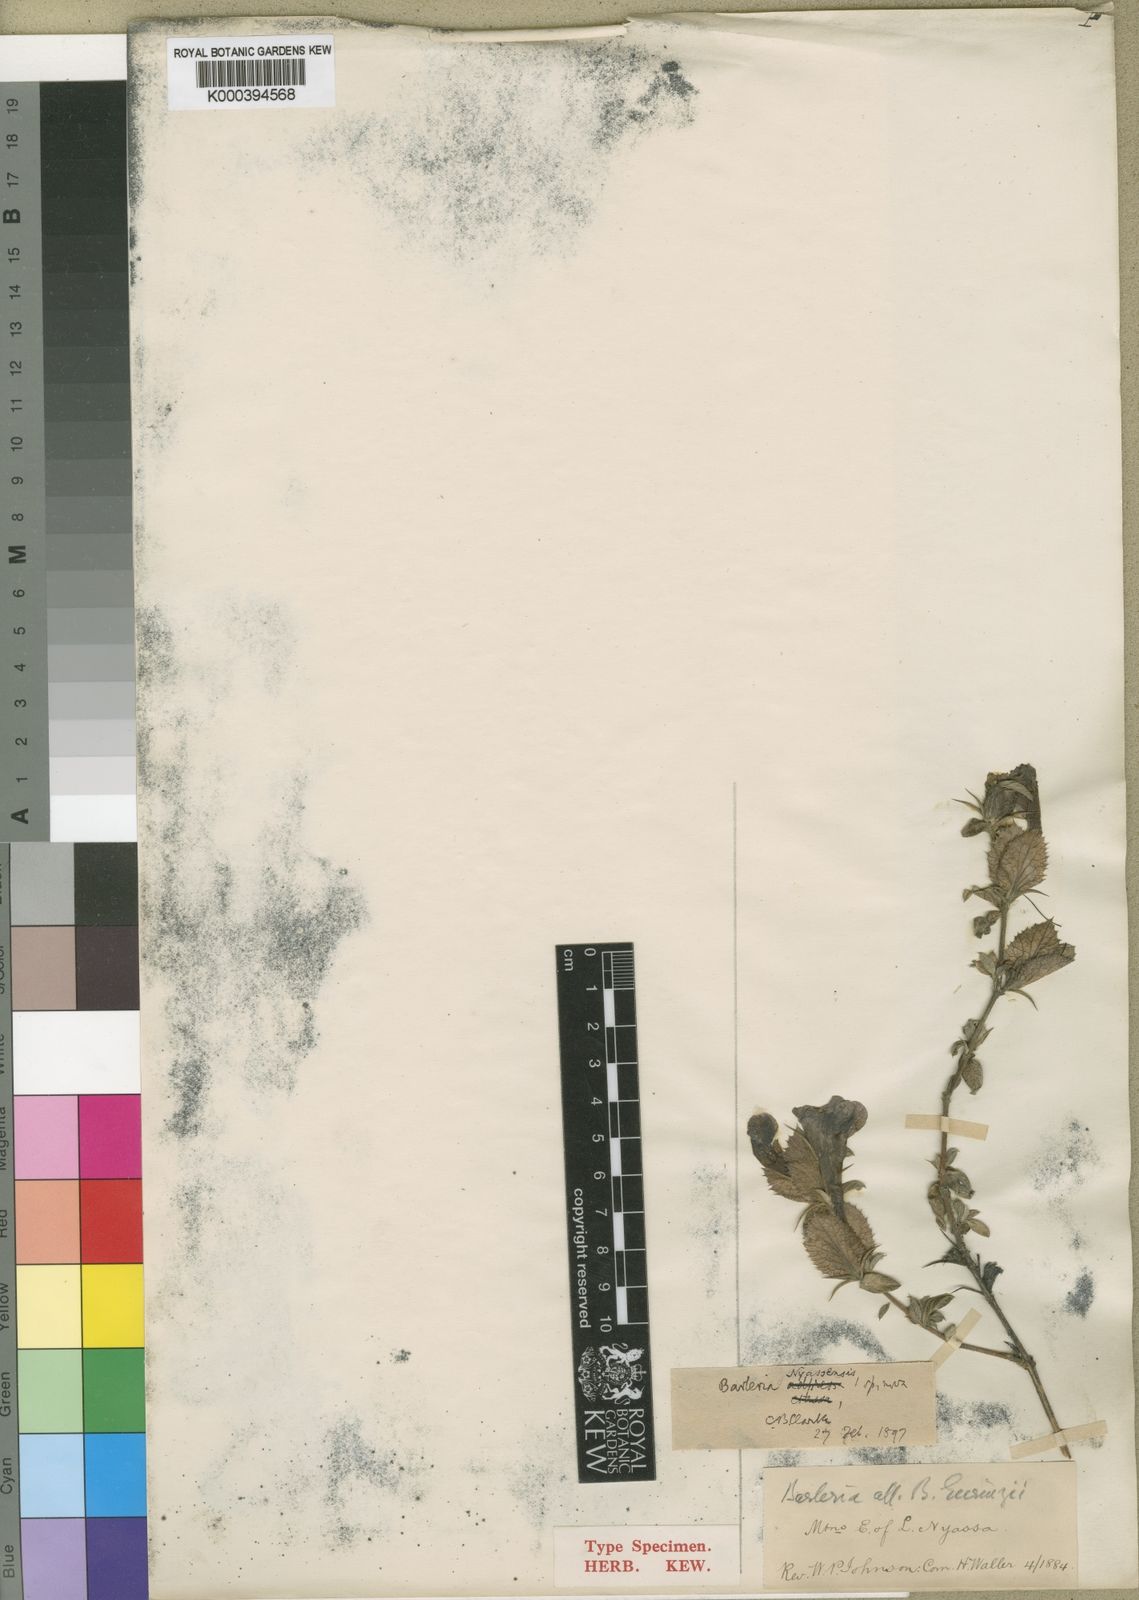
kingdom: Plantae
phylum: Tracheophyta
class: Magnoliopsida
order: Lamiales
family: Acanthaceae
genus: Barleria
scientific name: Barleria nyasensis
